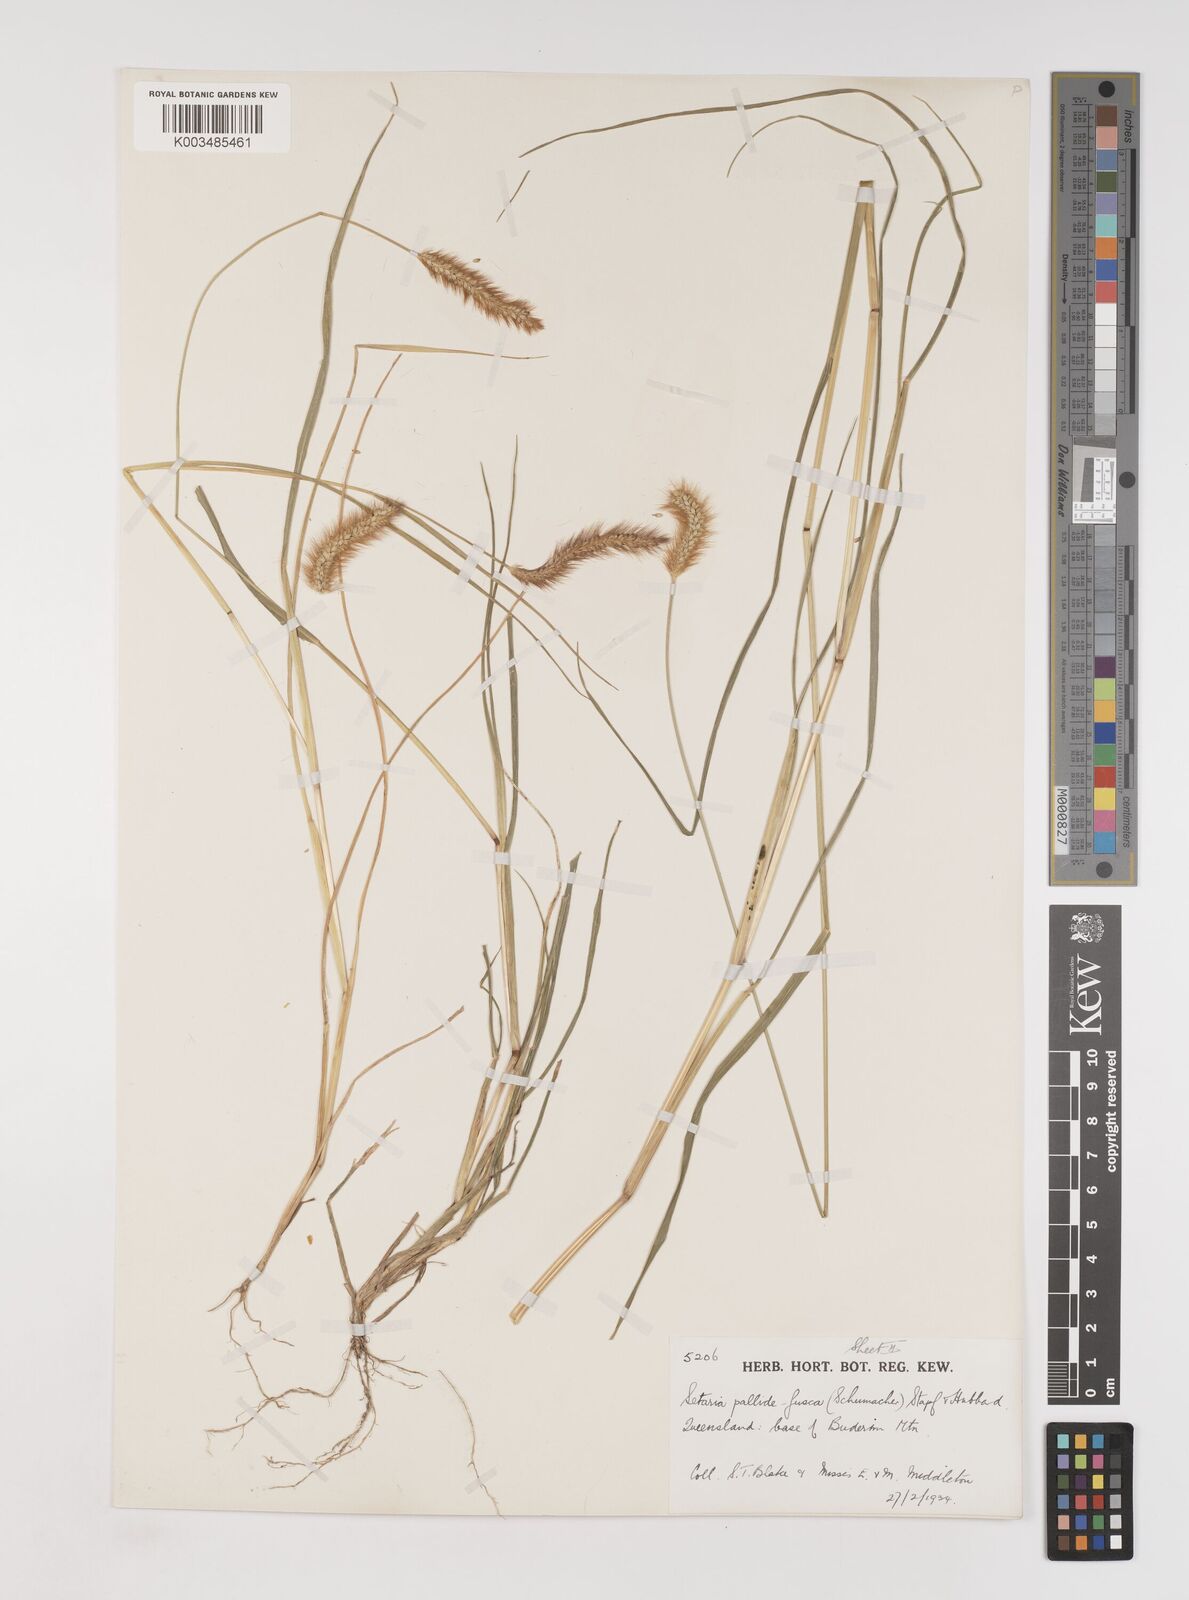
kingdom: Plantae
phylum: Tracheophyta
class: Liliopsida
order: Poales
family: Poaceae
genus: Setaria
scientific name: Setaria pumila
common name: Yellow bristle-grass
